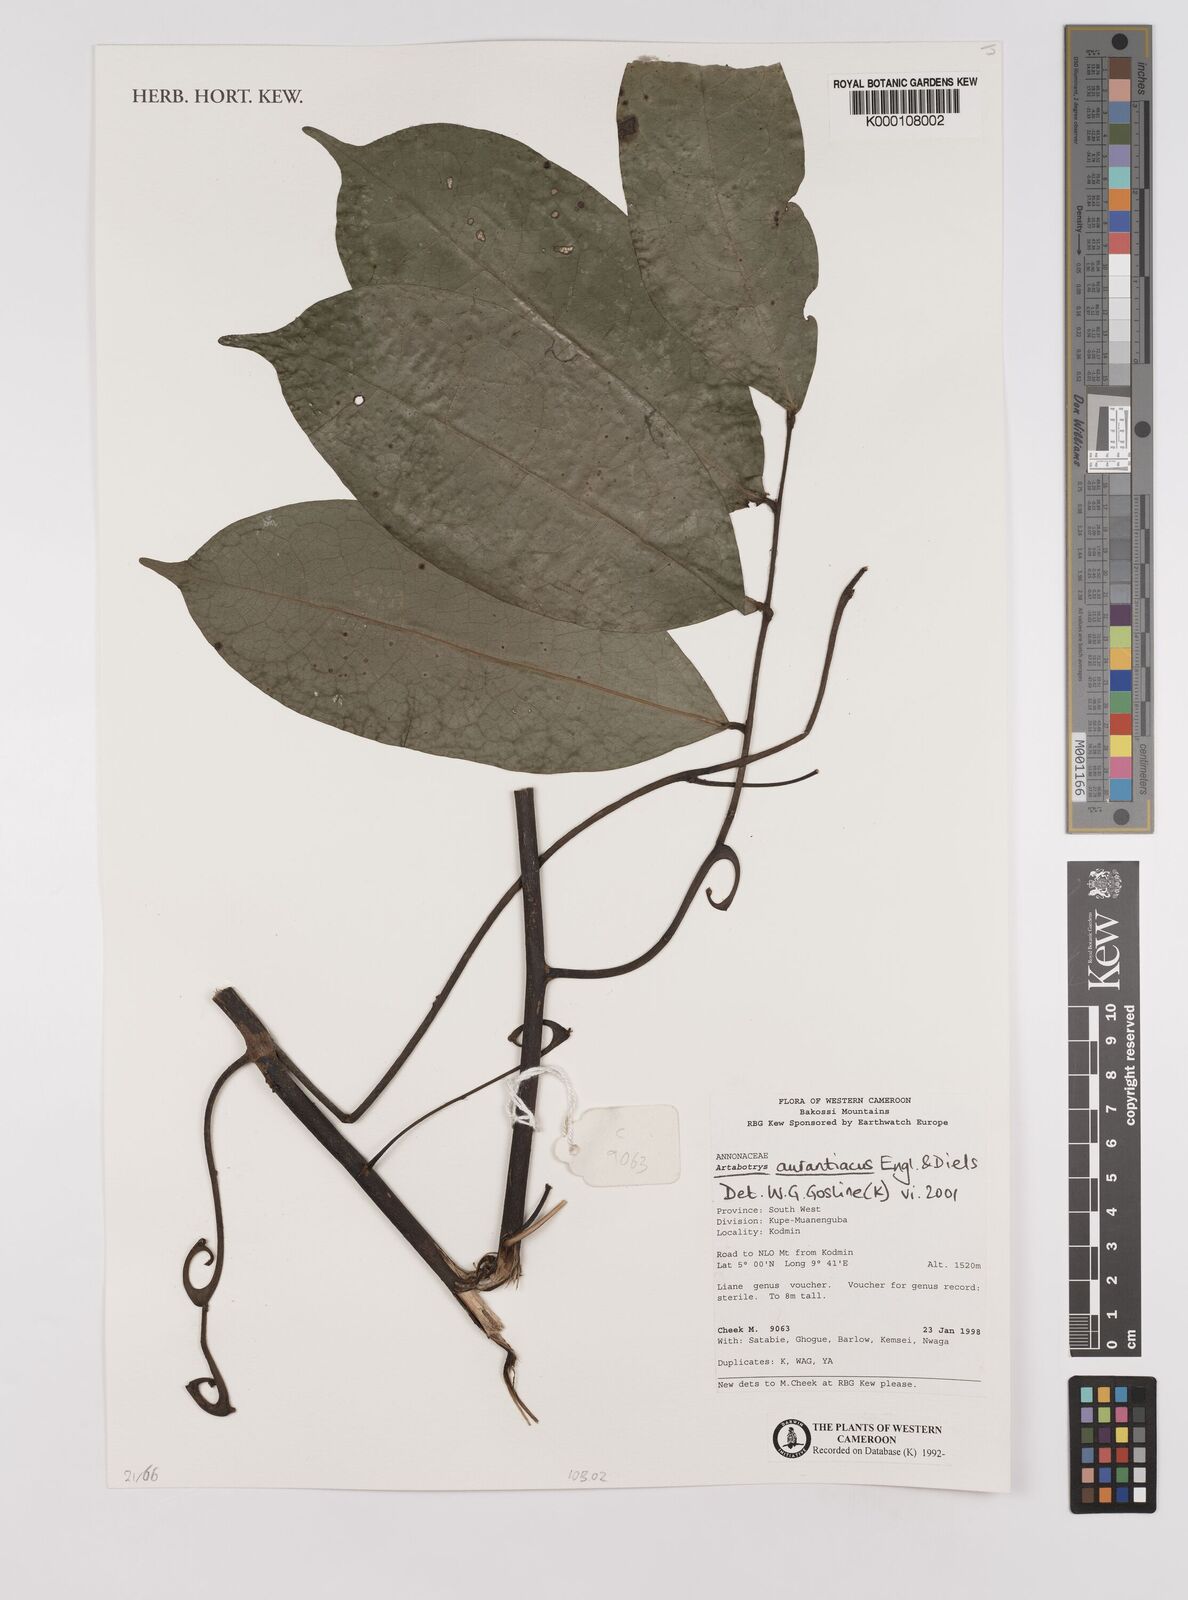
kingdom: Plantae
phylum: Tracheophyta
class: Magnoliopsida
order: Magnoliales
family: Annonaceae
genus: Artabotrys
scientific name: Artabotrys aurantiacus
